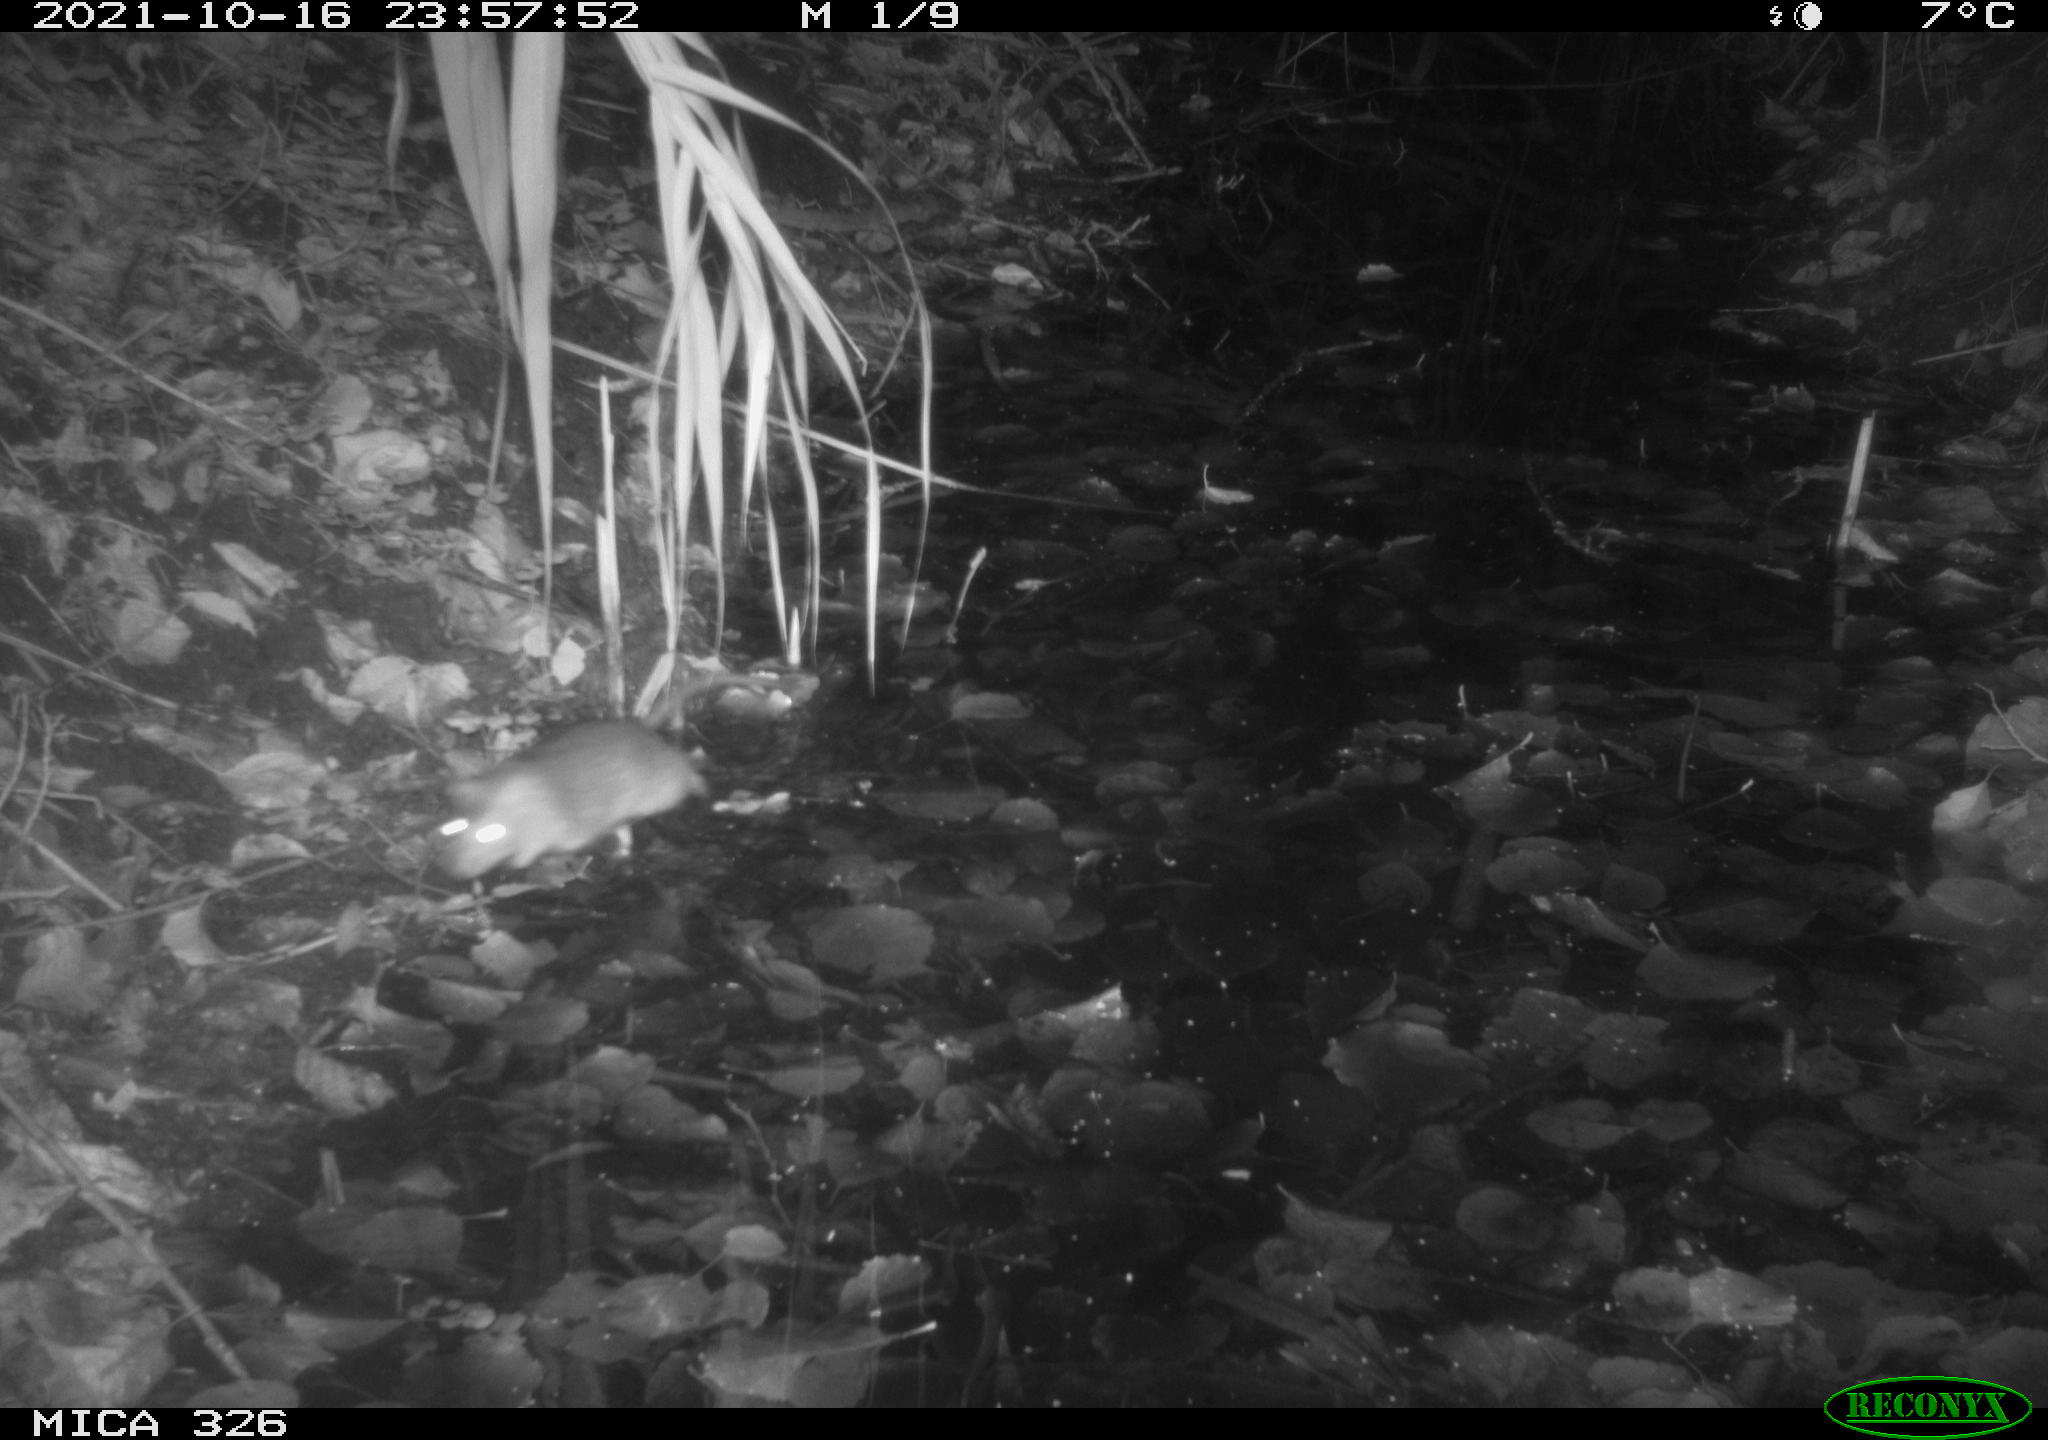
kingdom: Animalia
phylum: Chordata
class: Mammalia
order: Rodentia
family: Muridae
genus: Rattus
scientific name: Rattus norvegicus
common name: Brown rat
